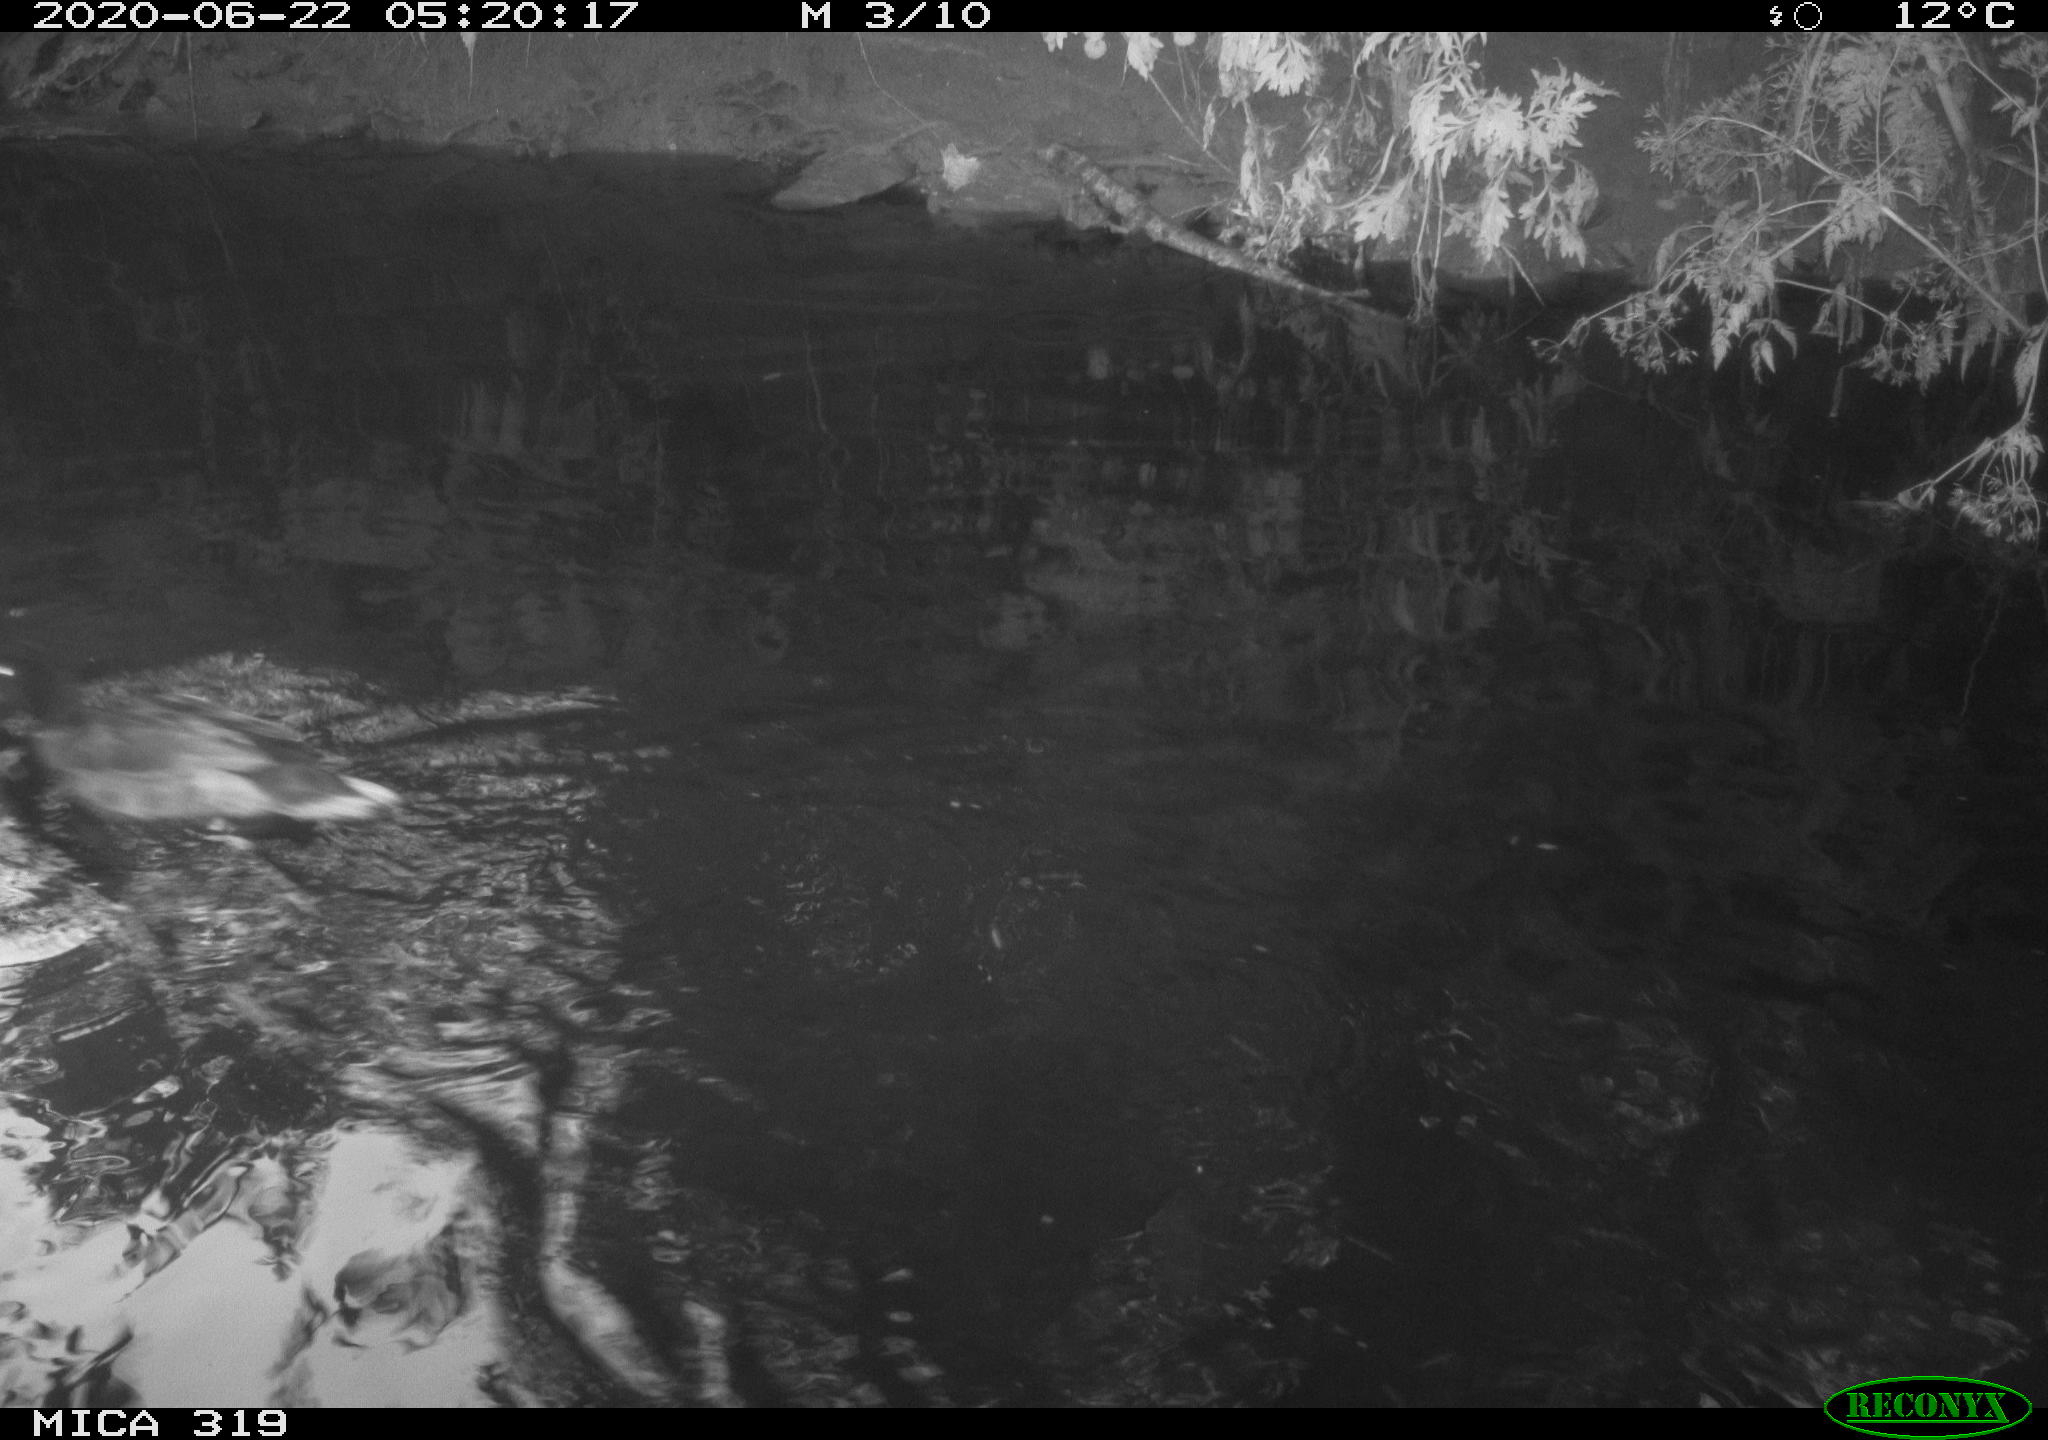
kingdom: Animalia
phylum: Chordata
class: Aves
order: Anseriformes
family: Anatidae
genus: Anas
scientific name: Anas platyrhynchos
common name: Mallard
